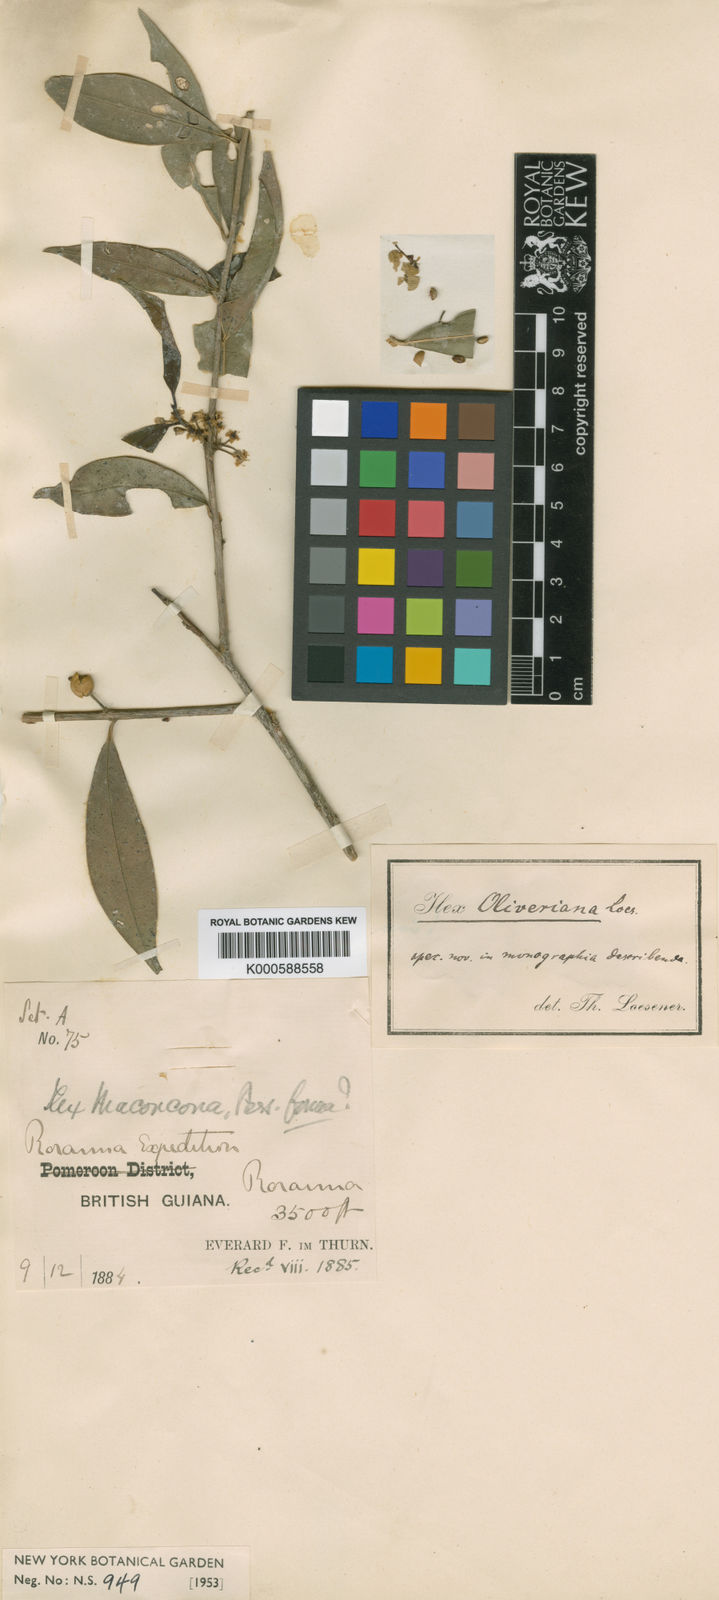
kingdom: Plantae
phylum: Tracheophyta
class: Magnoliopsida
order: Aquifoliales
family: Aquifoliaceae
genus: Ilex
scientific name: Ilex oliveriana
